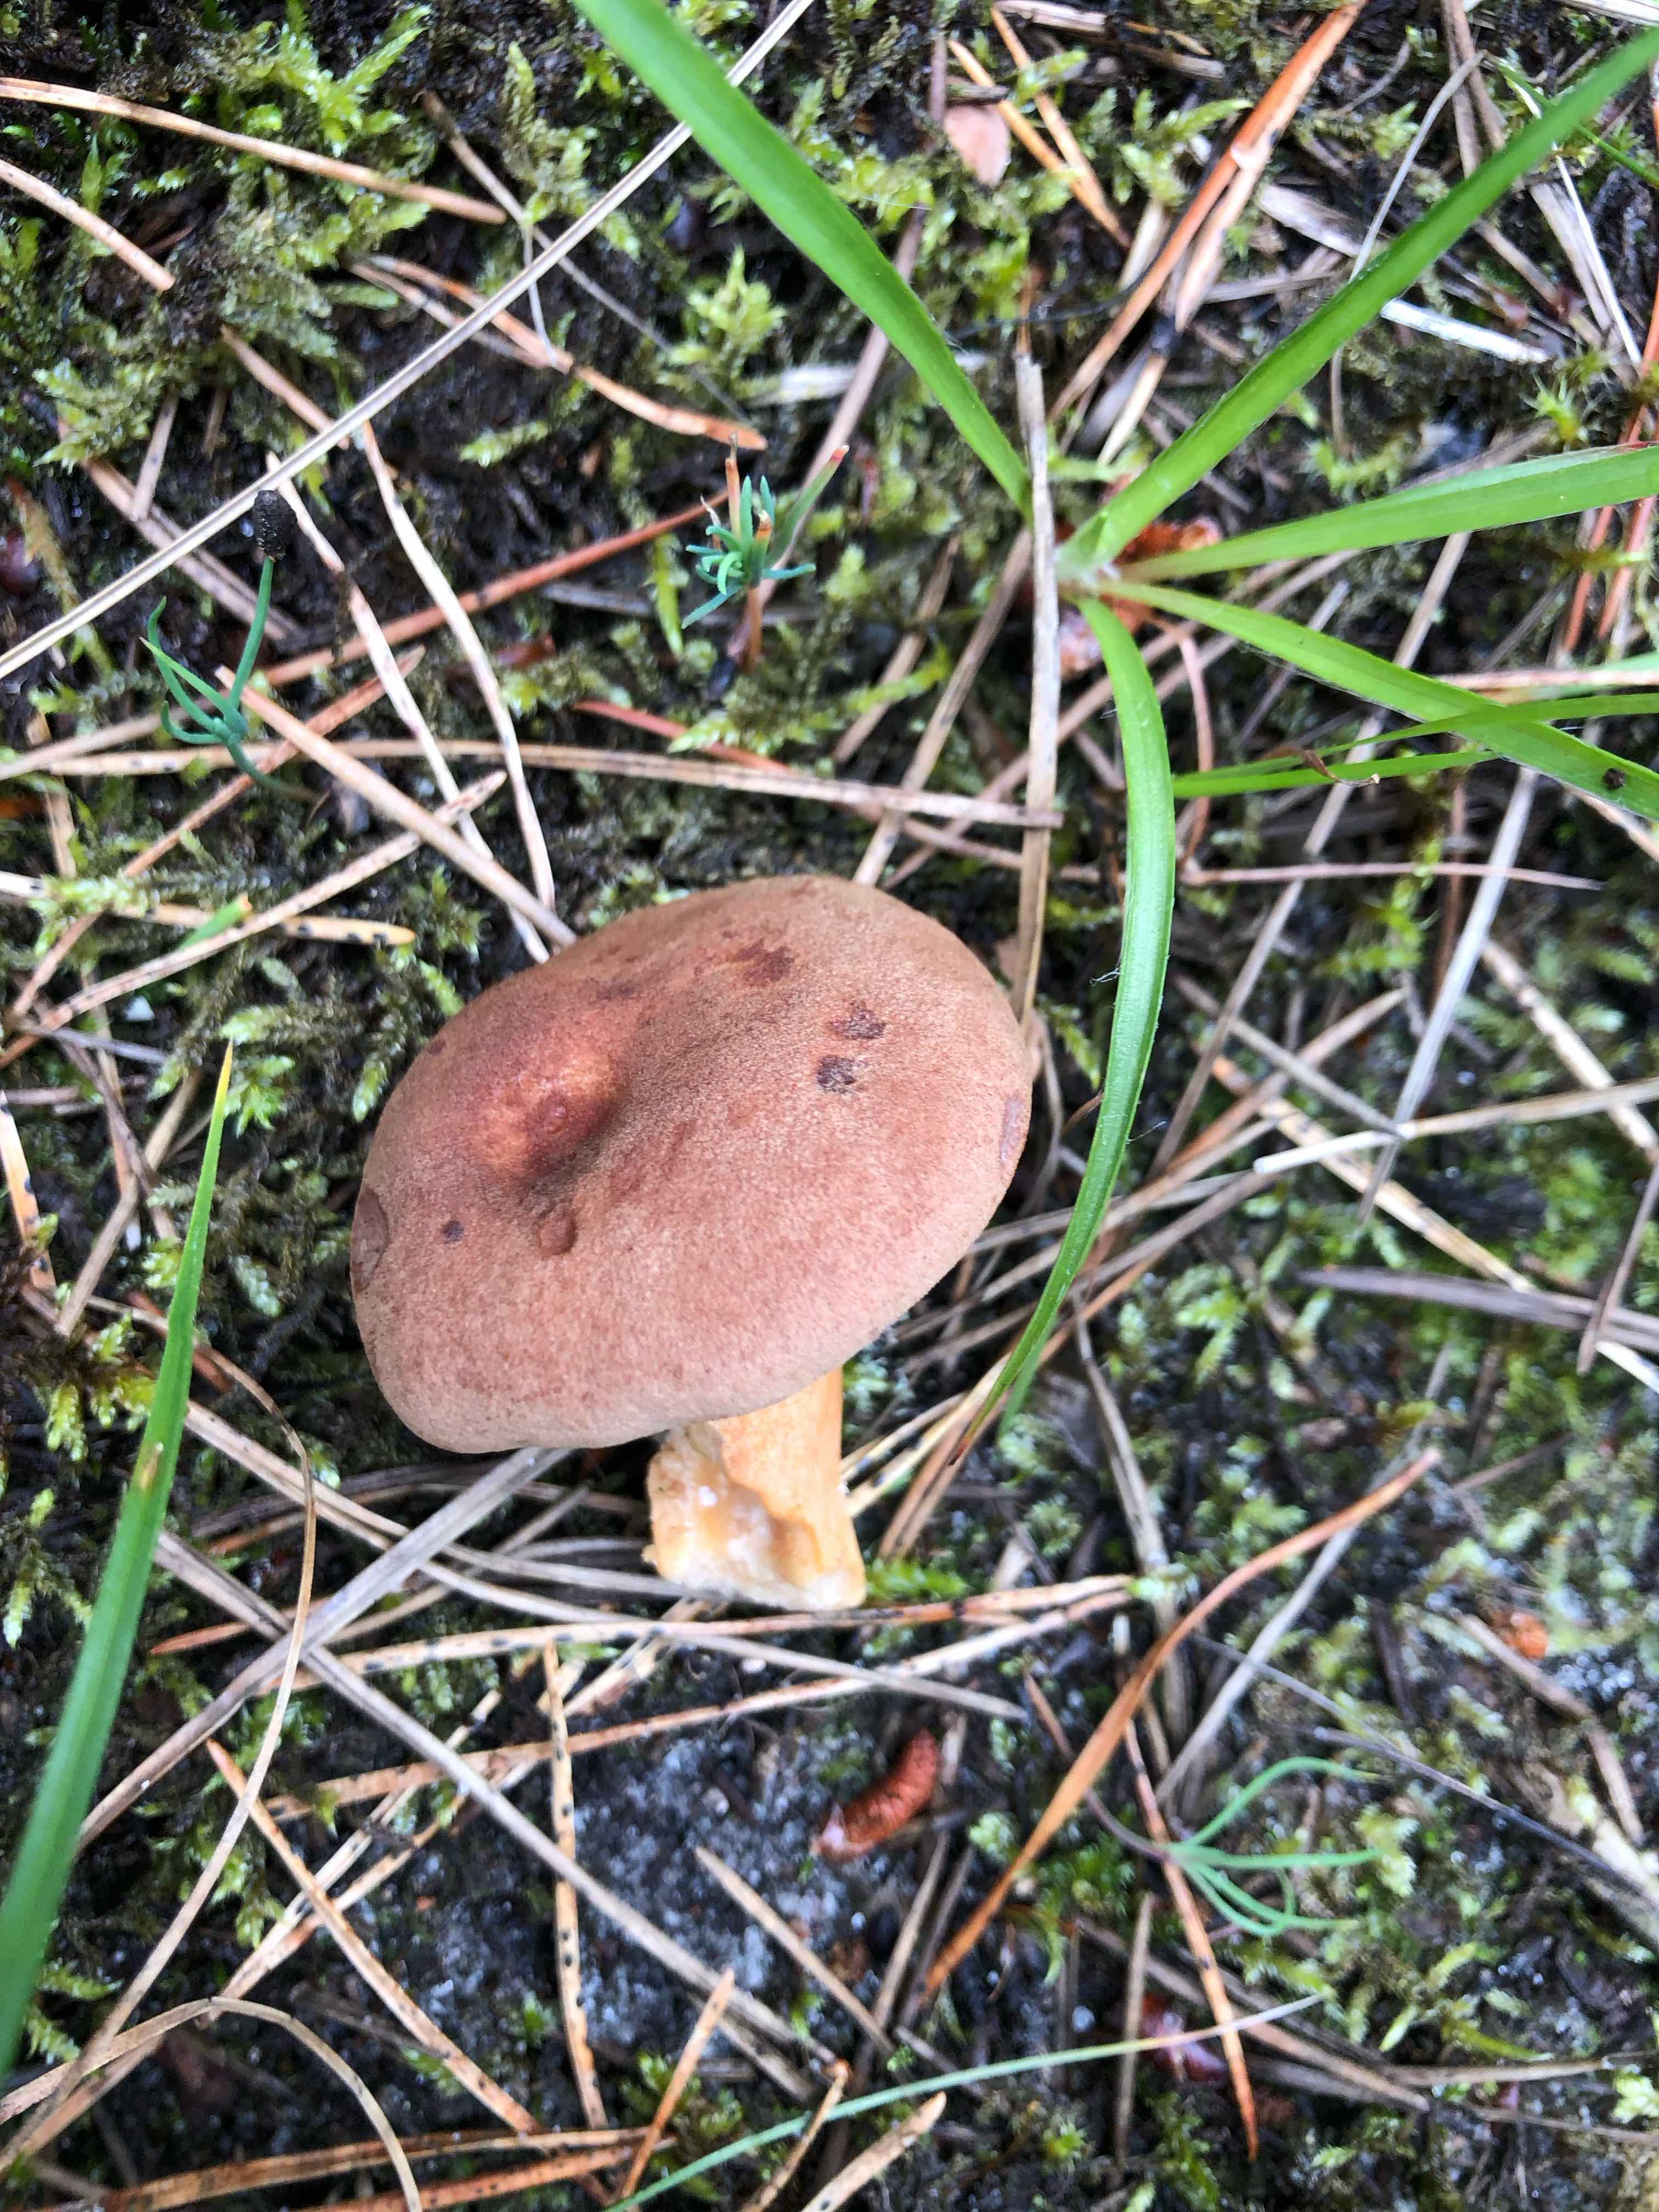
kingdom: Fungi
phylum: Basidiomycota
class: Agaricomycetes
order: Russulales
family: Russulaceae
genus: Lactarius
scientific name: Lactarius helvus
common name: mose-mælkehat
